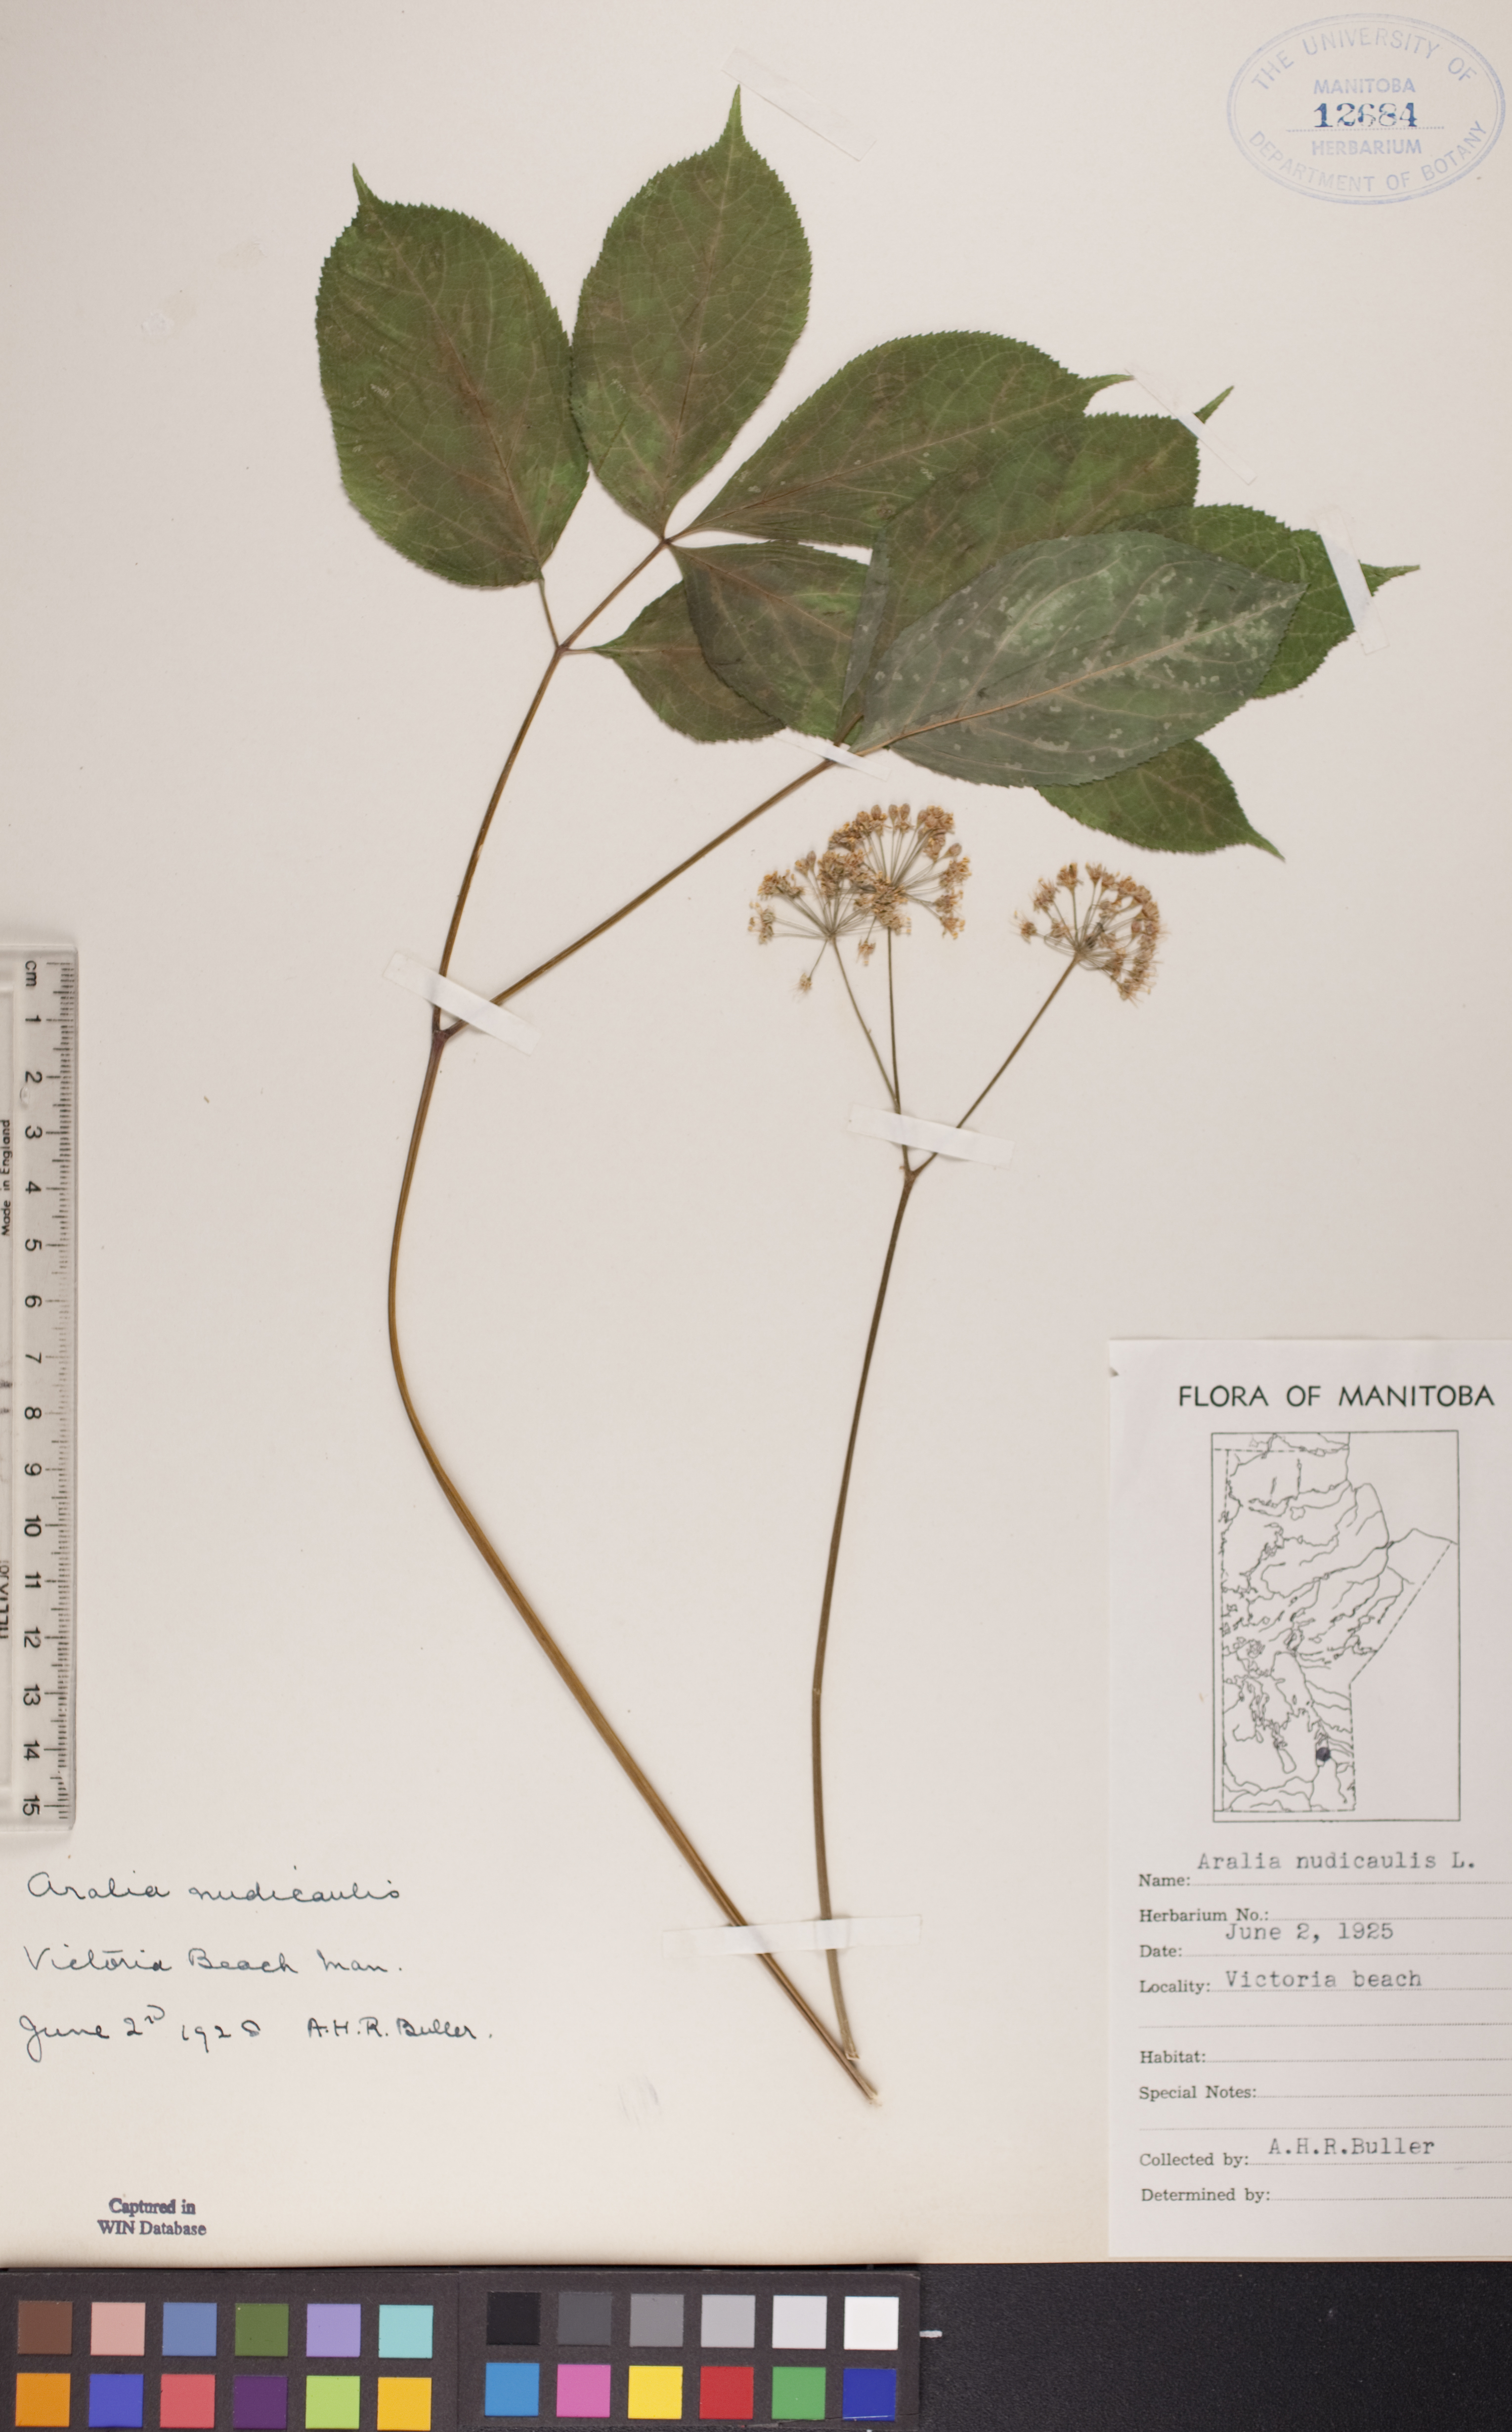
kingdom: Plantae
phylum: Tracheophyta
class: Magnoliopsida
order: Apiales
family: Araliaceae
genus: Aralia
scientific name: Aralia nudicaulis
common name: Wild sarsaparilla
